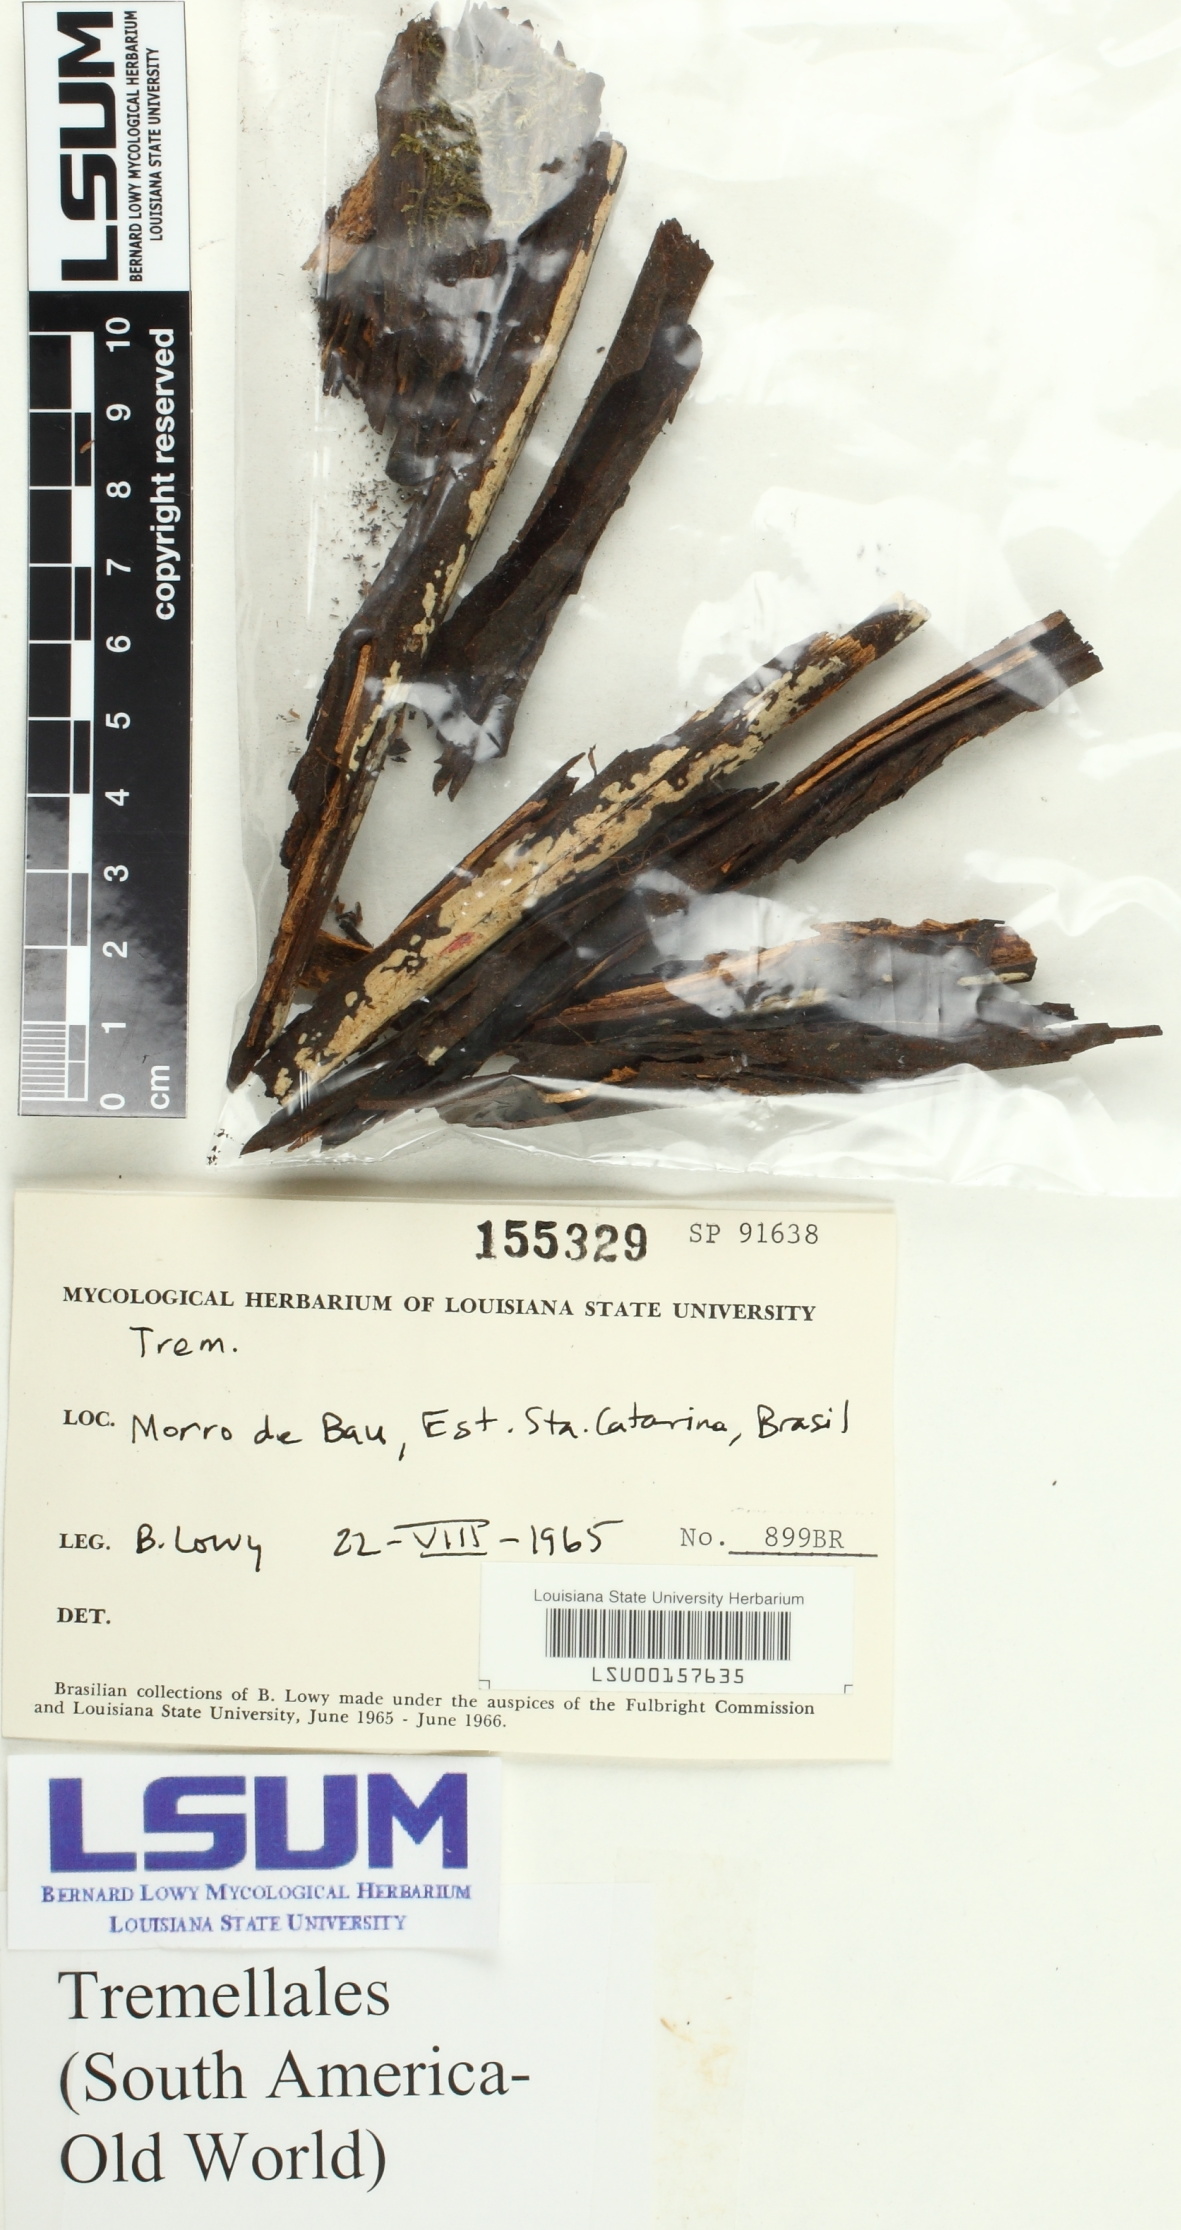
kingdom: Fungi
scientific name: Fungi
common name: Fungi
